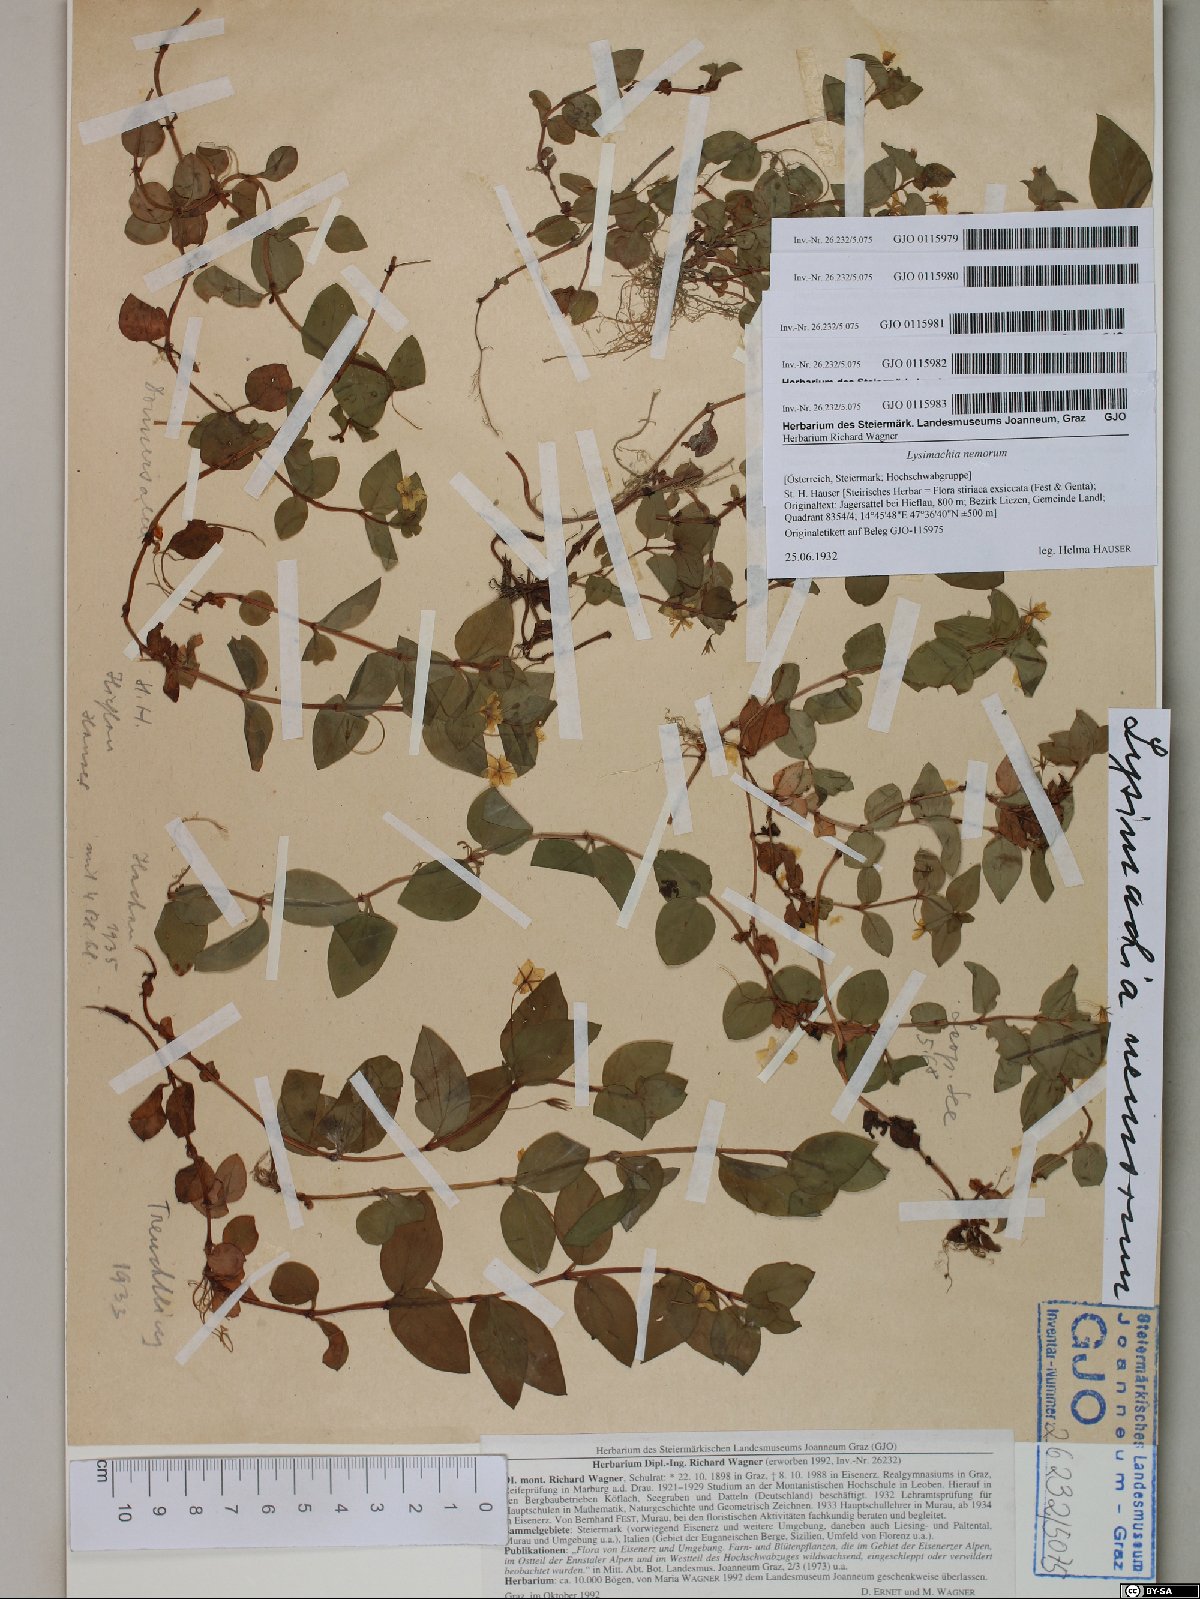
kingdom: Plantae
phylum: Tracheophyta
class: Magnoliopsida
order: Ericales
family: Primulaceae
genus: Lysimachia
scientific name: Lysimachia nemorum
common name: Yellow pimpernel
